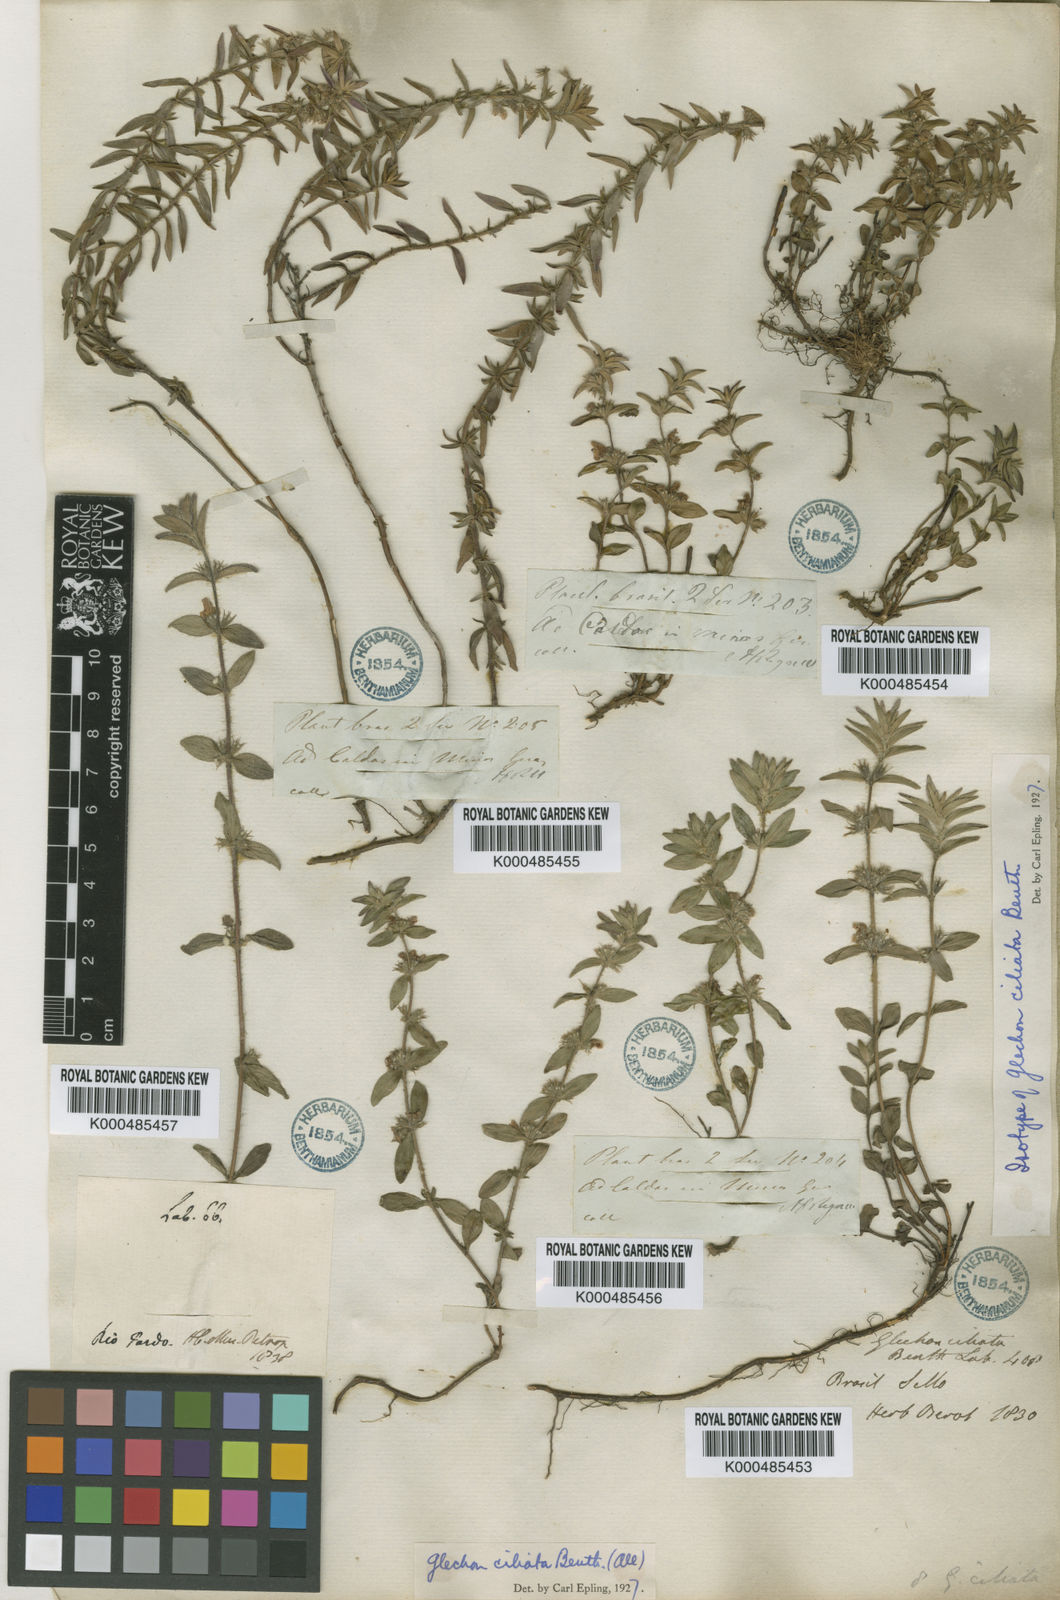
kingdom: Plantae
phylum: Tracheophyta
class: Magnoliopsida
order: Lamiales
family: Lamiaceae
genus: Glechon
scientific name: Glechon ciliata
